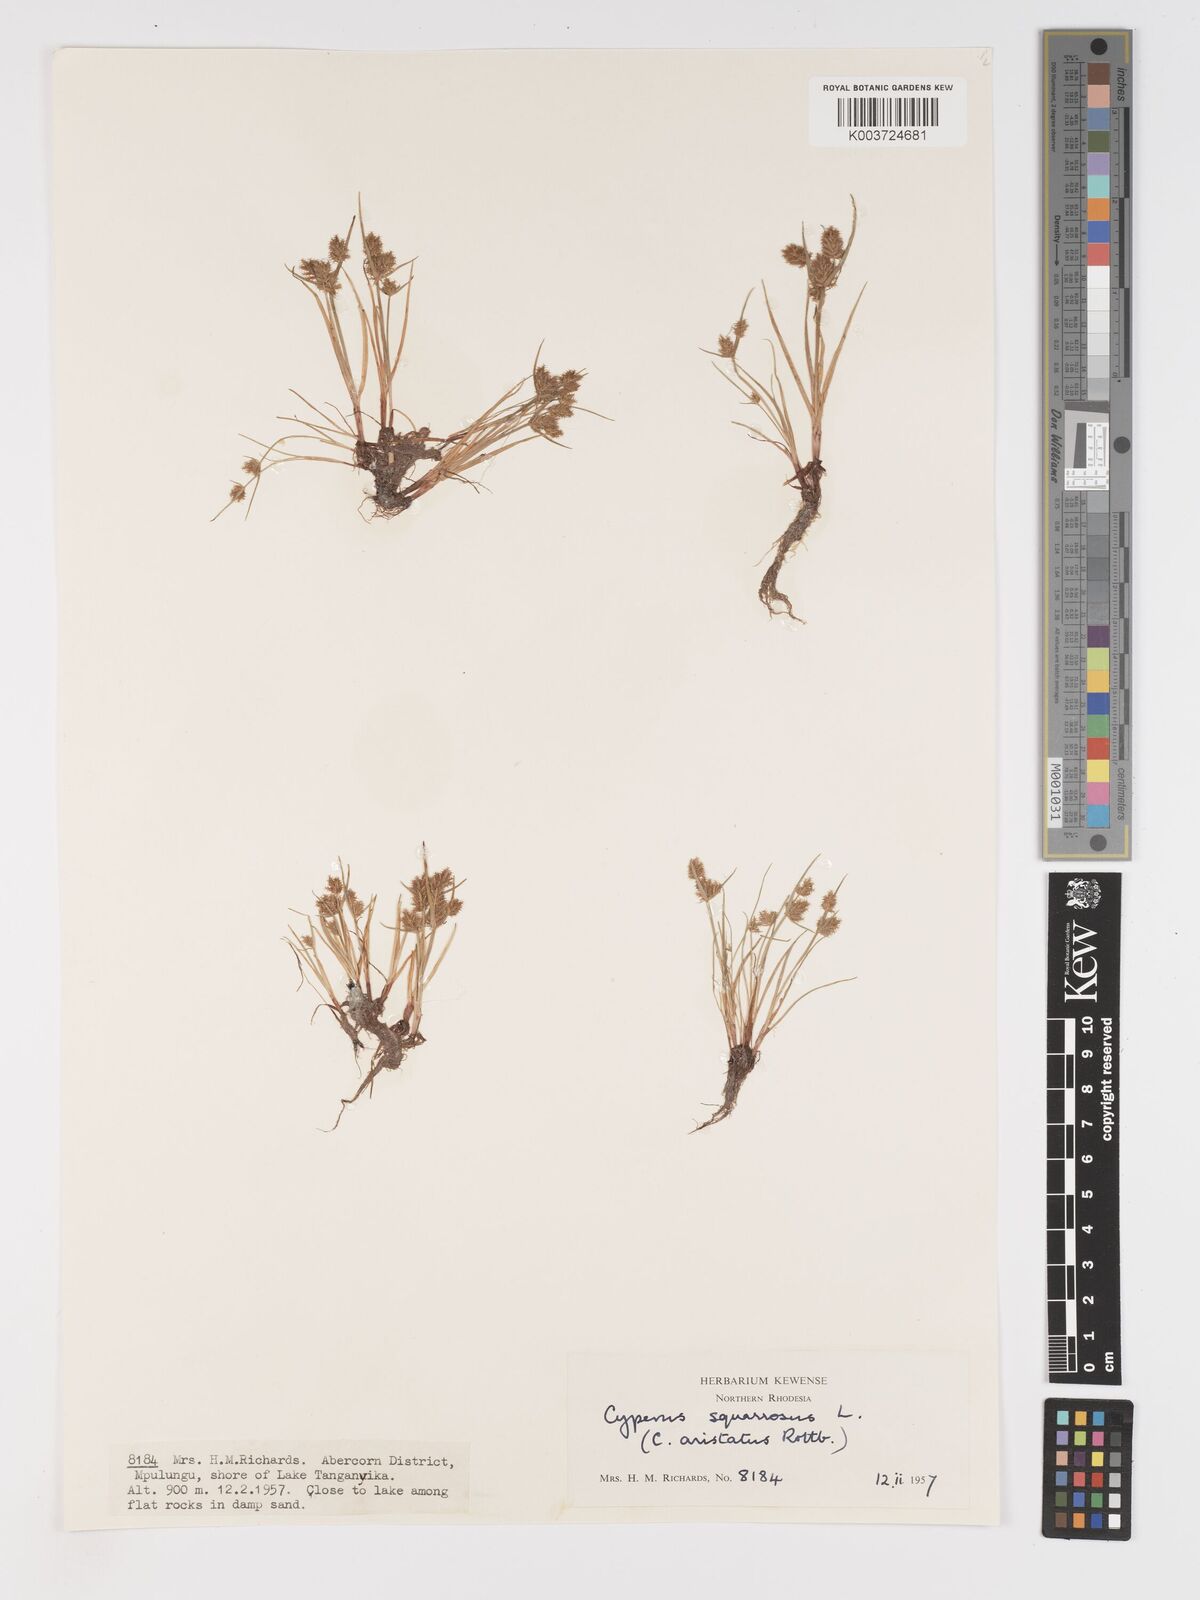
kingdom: Plantae
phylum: Tracheophyta
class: Liliopsida
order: Poales
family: Cyperaceae
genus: Cyperus
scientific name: Cyperus squarrosus
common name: Awned cyperus
